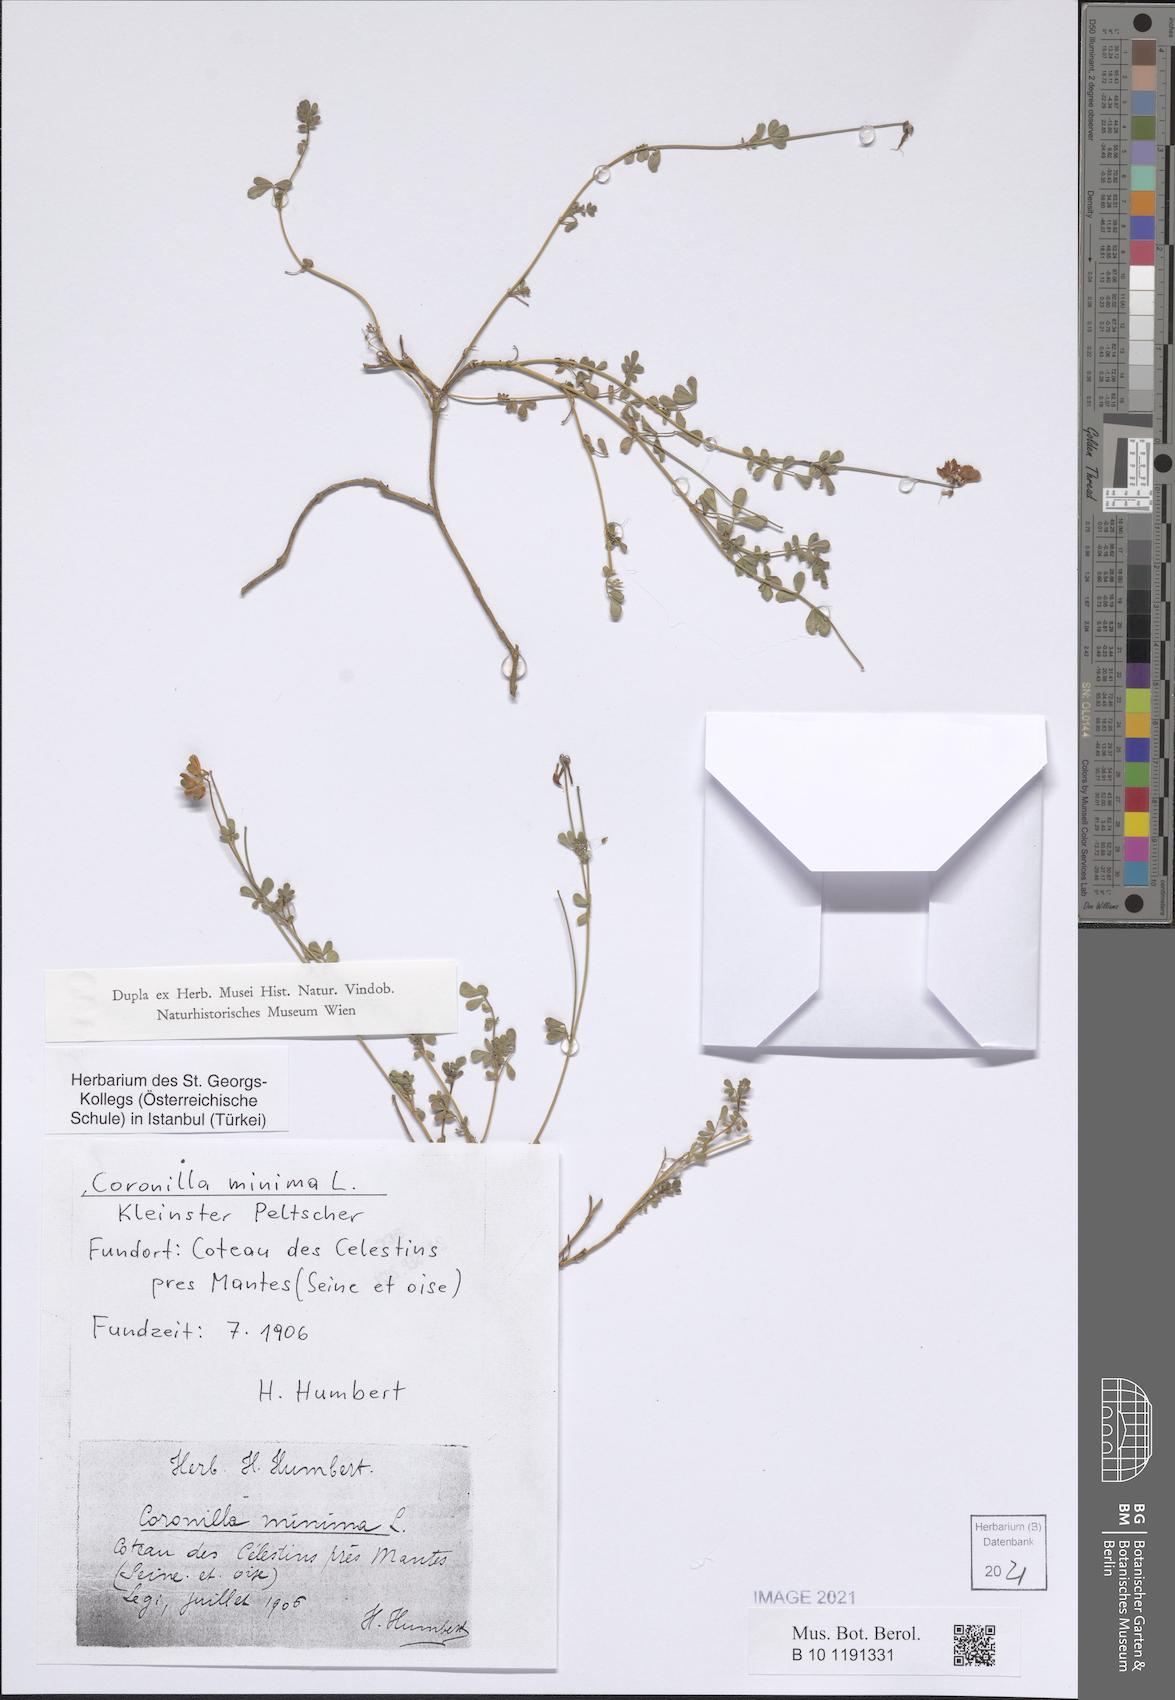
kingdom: Plantae
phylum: Tracheophyta
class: Magnoliopsida
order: Fabales
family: Fabaceae
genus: Coronilla
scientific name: Coronilla minima
